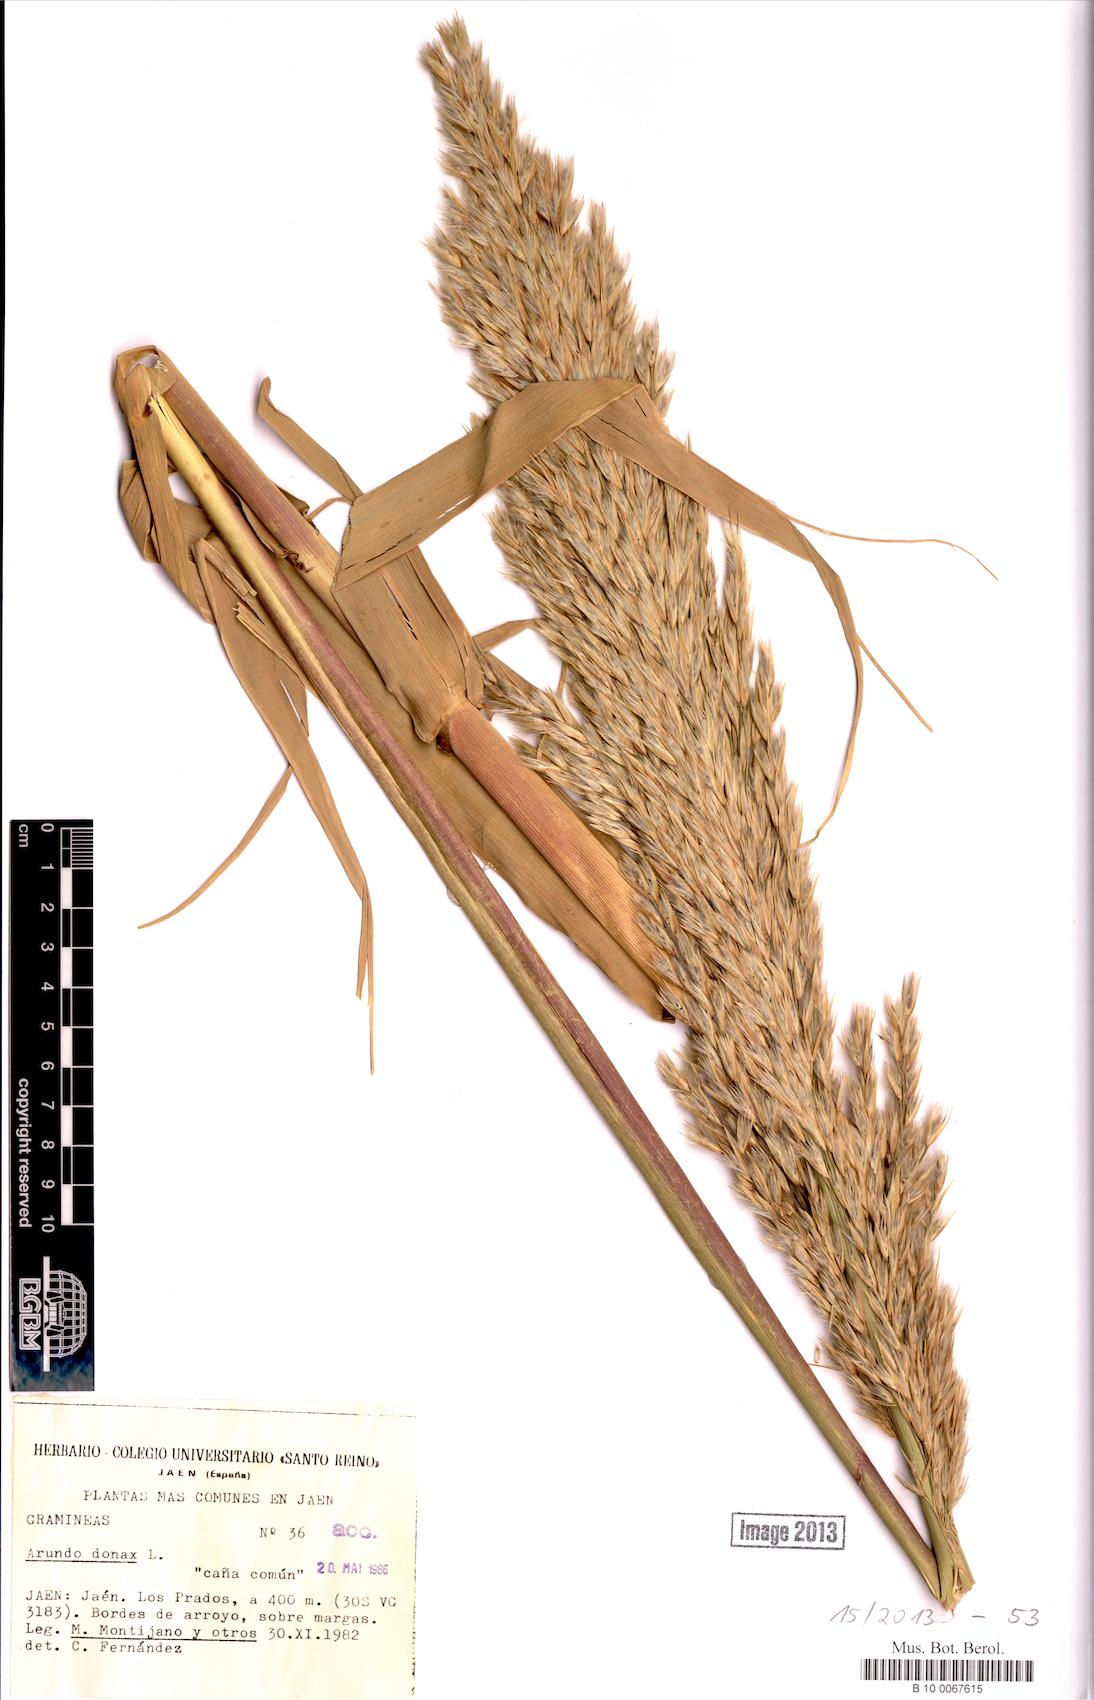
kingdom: Plantae
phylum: Tracheophyta
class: Liliopsida
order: Poales
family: Poaceae
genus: Arundo
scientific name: Arundo donax
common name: Giant reed
